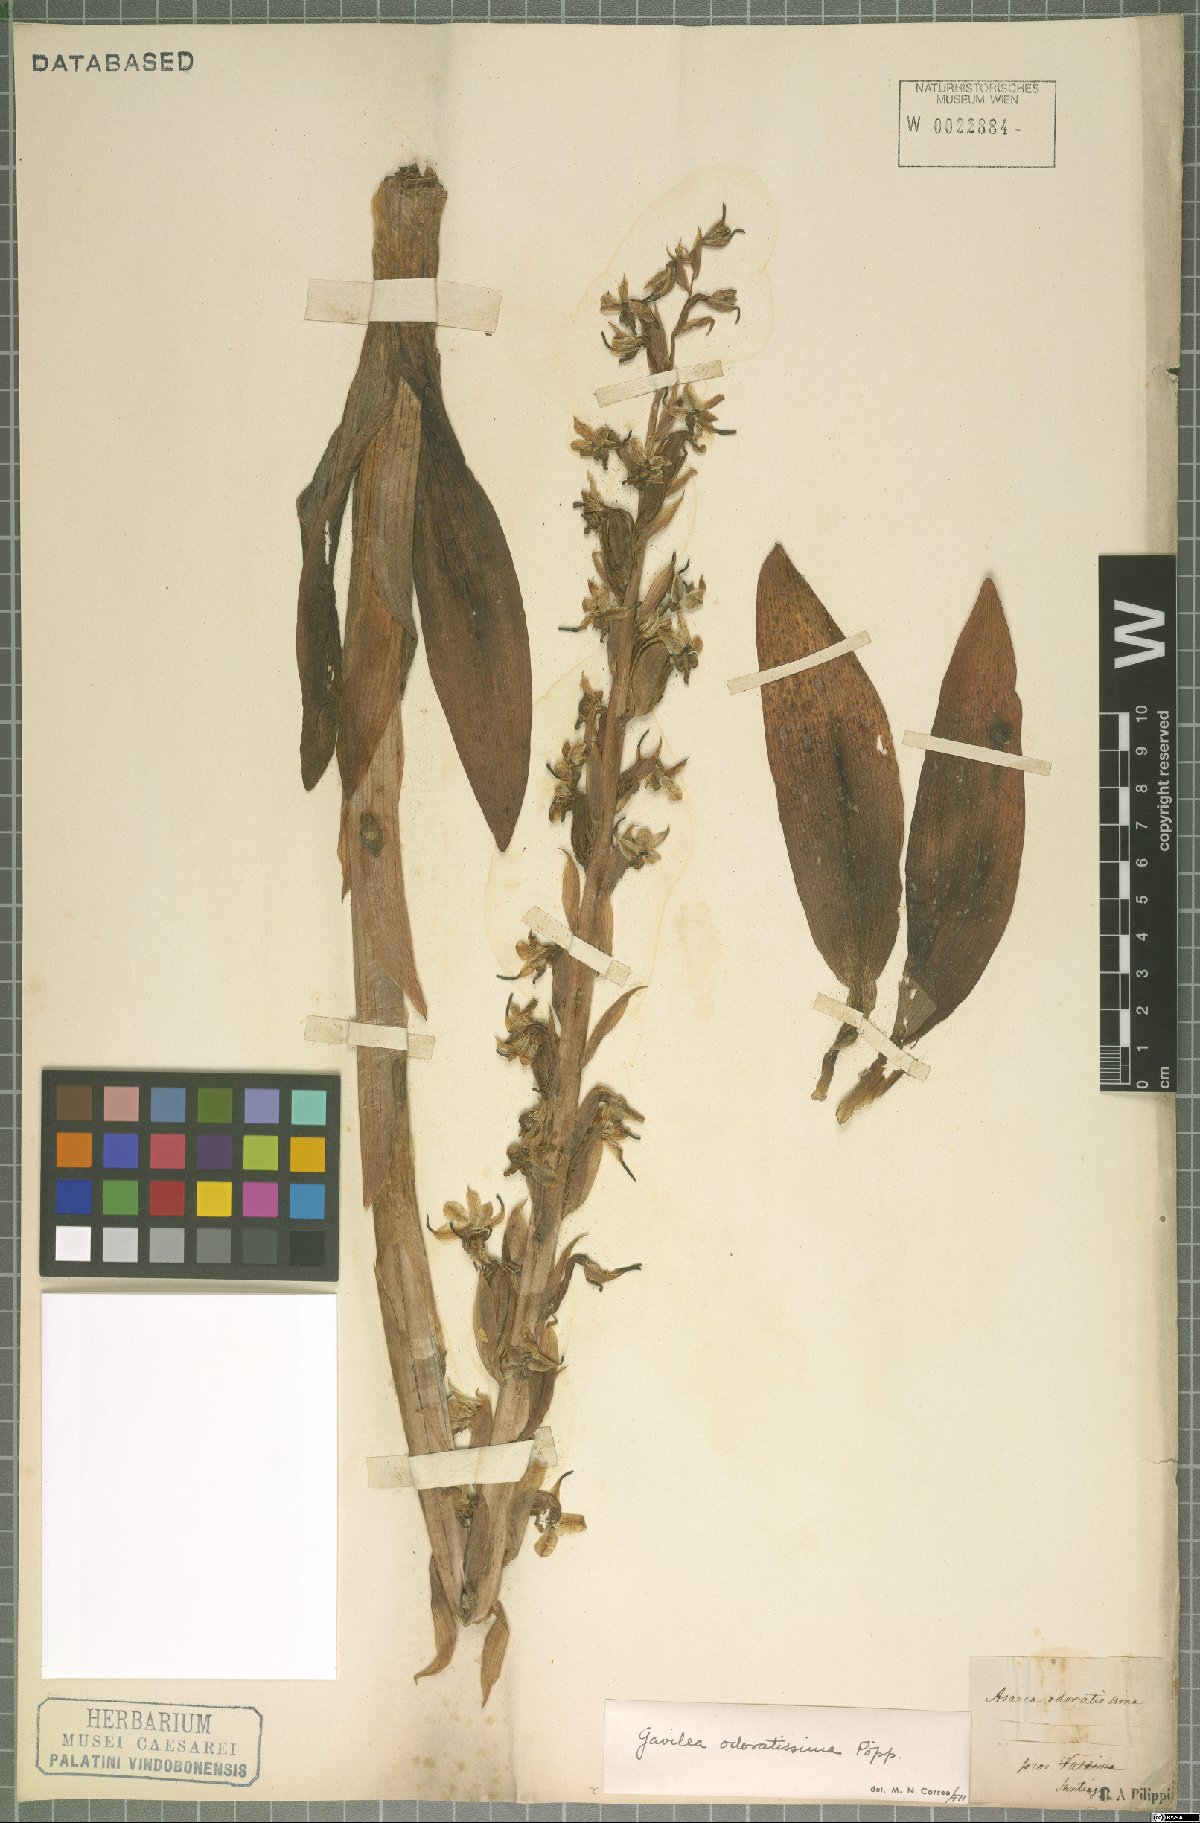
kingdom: Plantae
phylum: Tracheophyta
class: Liliopsida
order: Asparagales
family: Orchidaceae
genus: Gavilea
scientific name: Gavilea odoratissima
